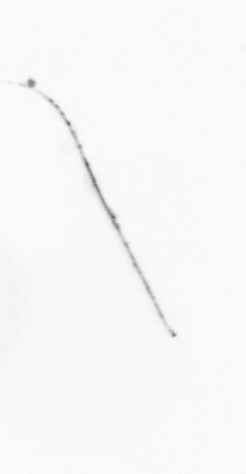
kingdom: Chromista
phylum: Ochrophyta
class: Bacillariophyceae
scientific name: Bacillariophyceae
